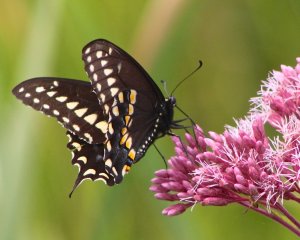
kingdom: Animalia
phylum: Arthropoda
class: Insecta
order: Lepidoptera
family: Papilionidae
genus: Papilio
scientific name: Papilio polyxenes
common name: Black Swallowtail
